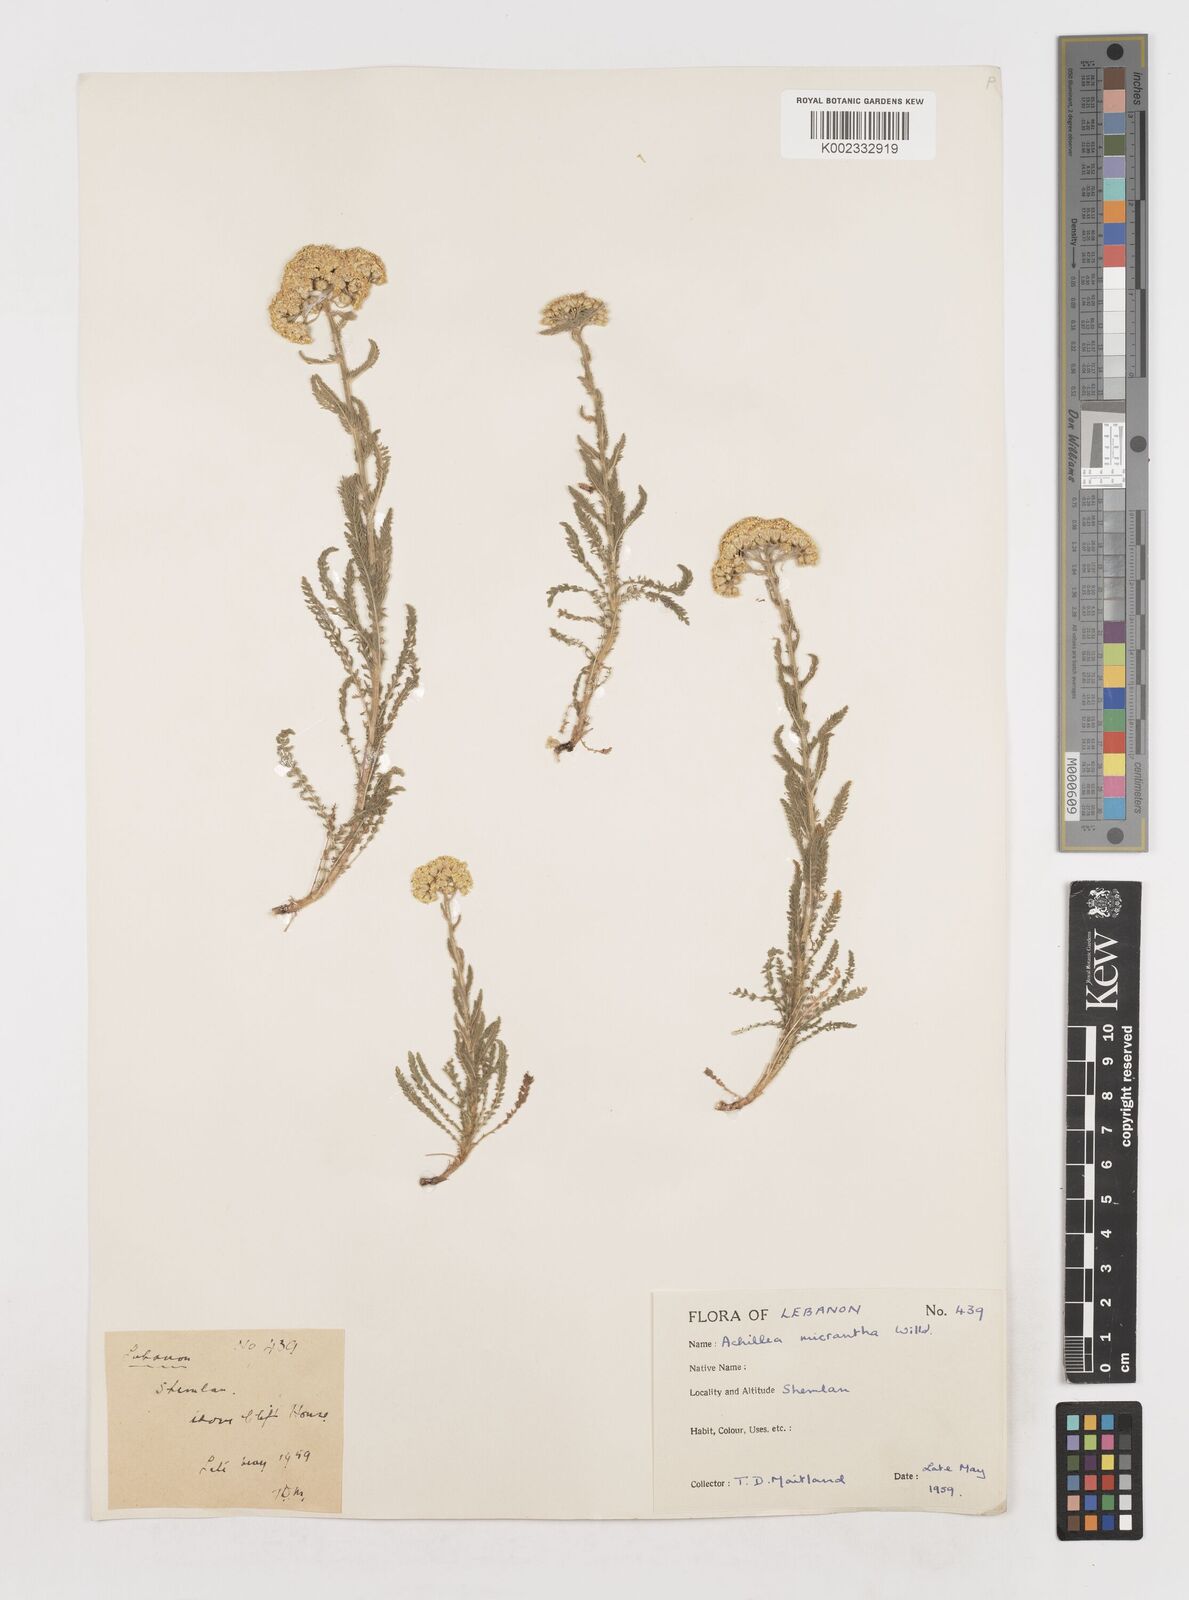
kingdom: Plantae
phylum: Tracheophyta
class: Magnoliopsida
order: Asterales
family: Asteraceae
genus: Achillea
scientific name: Achillea arabica
